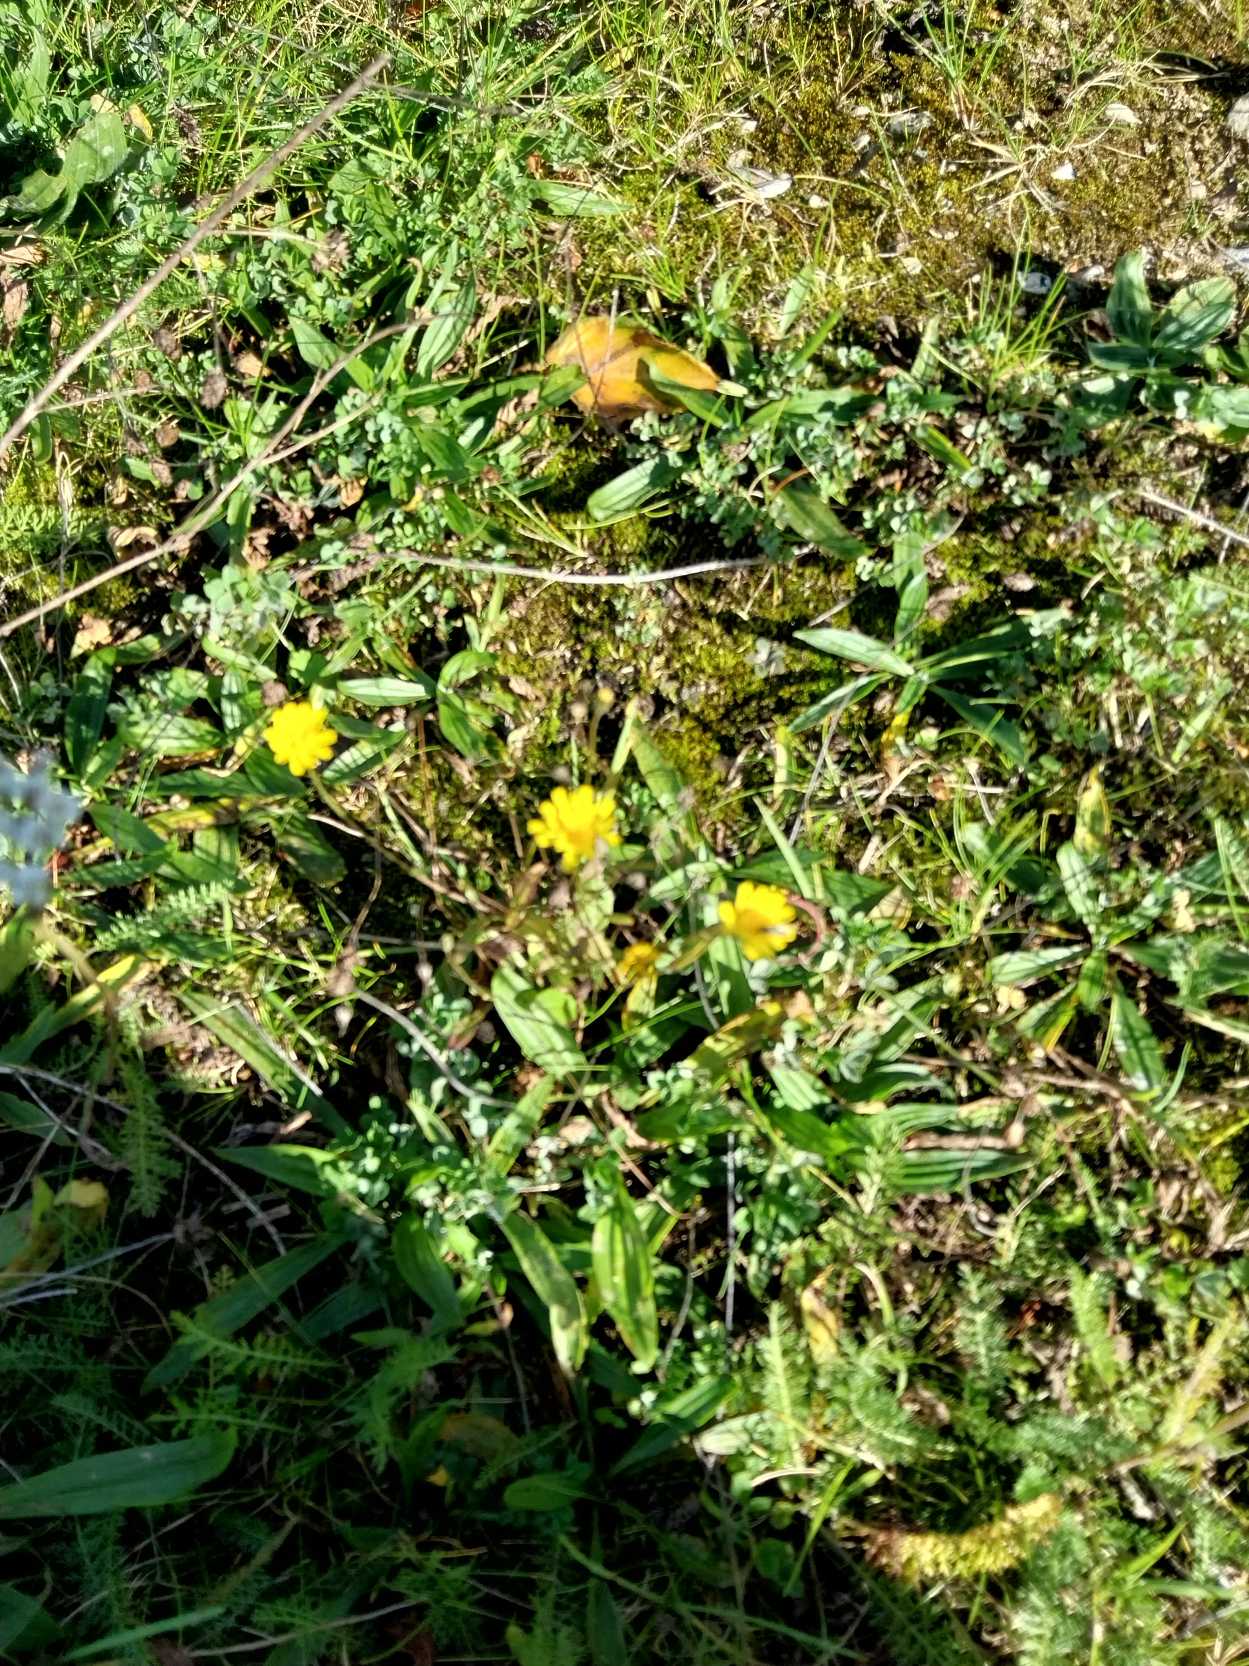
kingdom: Plantae
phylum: Tracheophyta
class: Magnoliopsida
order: Asterales
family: Asteraceae
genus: Crepis
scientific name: Crepis capillaris
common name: Grøn høgeskæg
